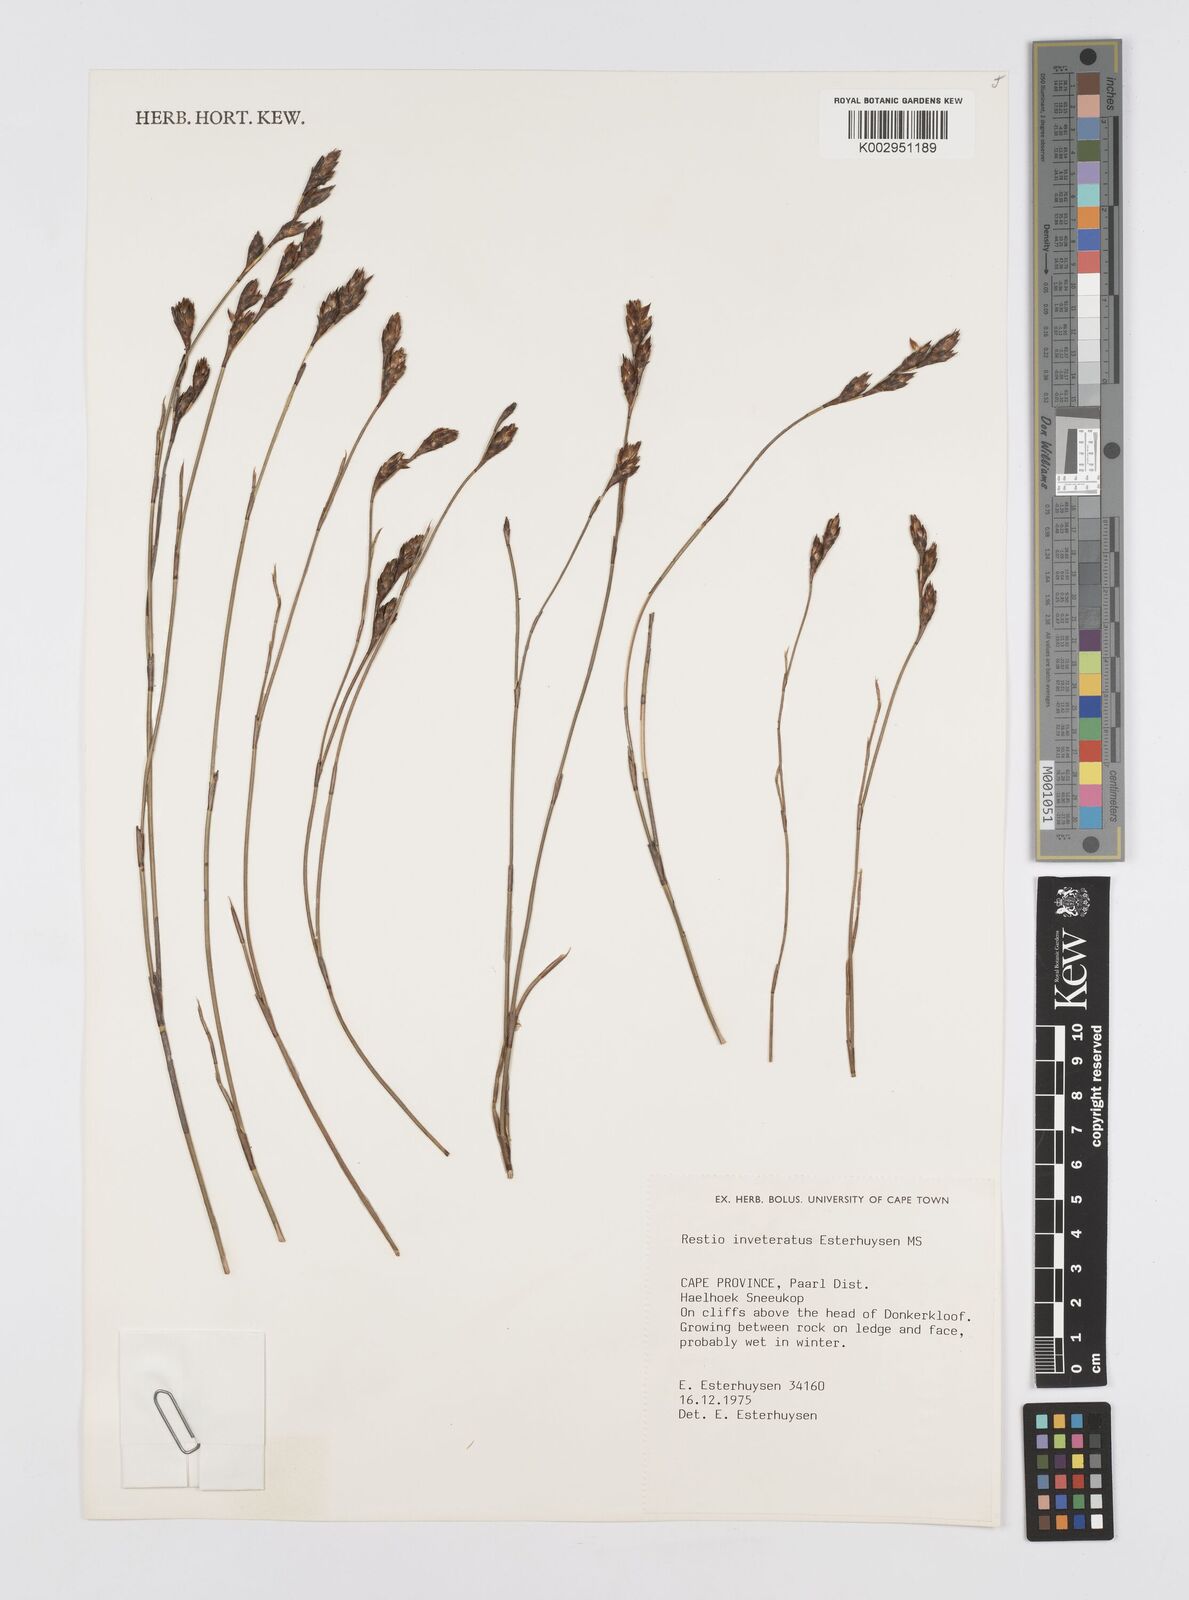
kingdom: Plantae
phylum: Tracheophyta
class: Liliopsida
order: Poales
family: Restionaceae
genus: Restio
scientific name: Restio inveteratus
